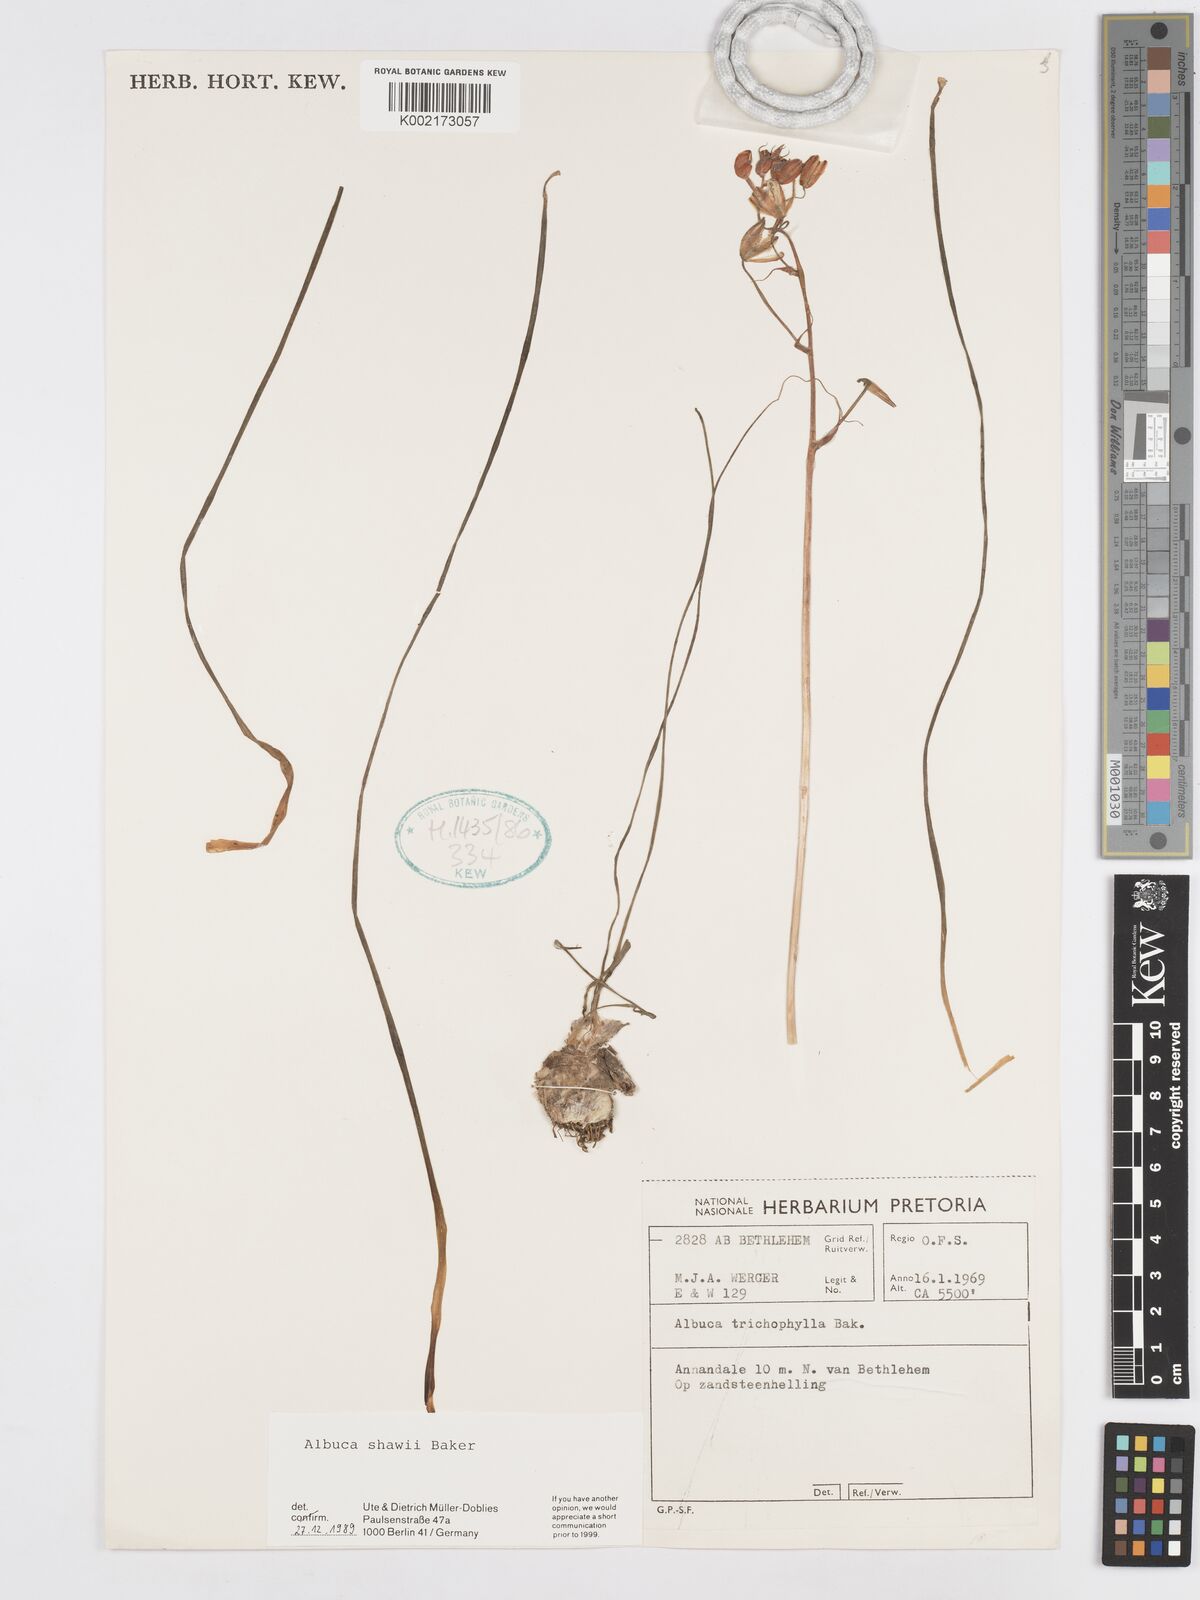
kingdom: Plantae
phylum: Tracheophyta
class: Liliopsida
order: Asparagales
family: Asparagaceae
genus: Albuca
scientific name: Albuca shawii
